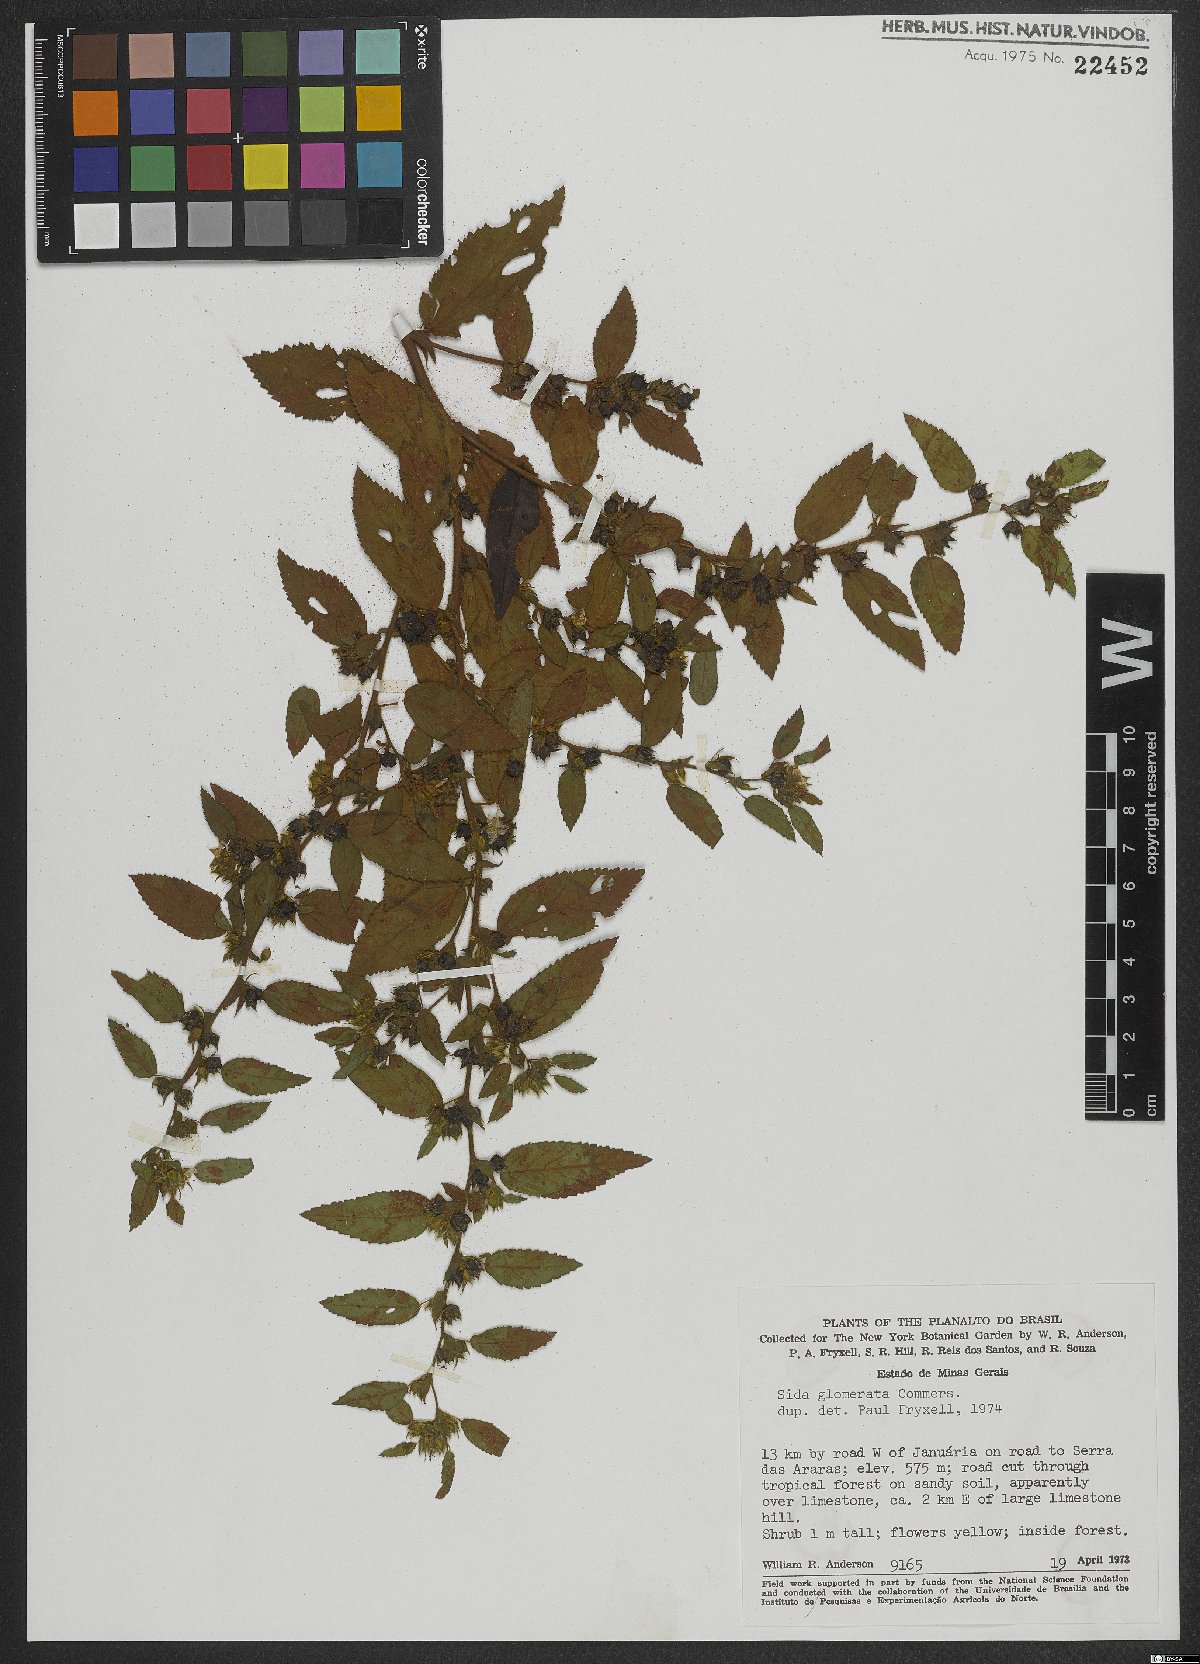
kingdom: Plantae
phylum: Tracheophyta
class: Magnoliopsida
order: Malvales
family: Malvaceae
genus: Sida
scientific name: Sida glomerata
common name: Clustered fanpetals
